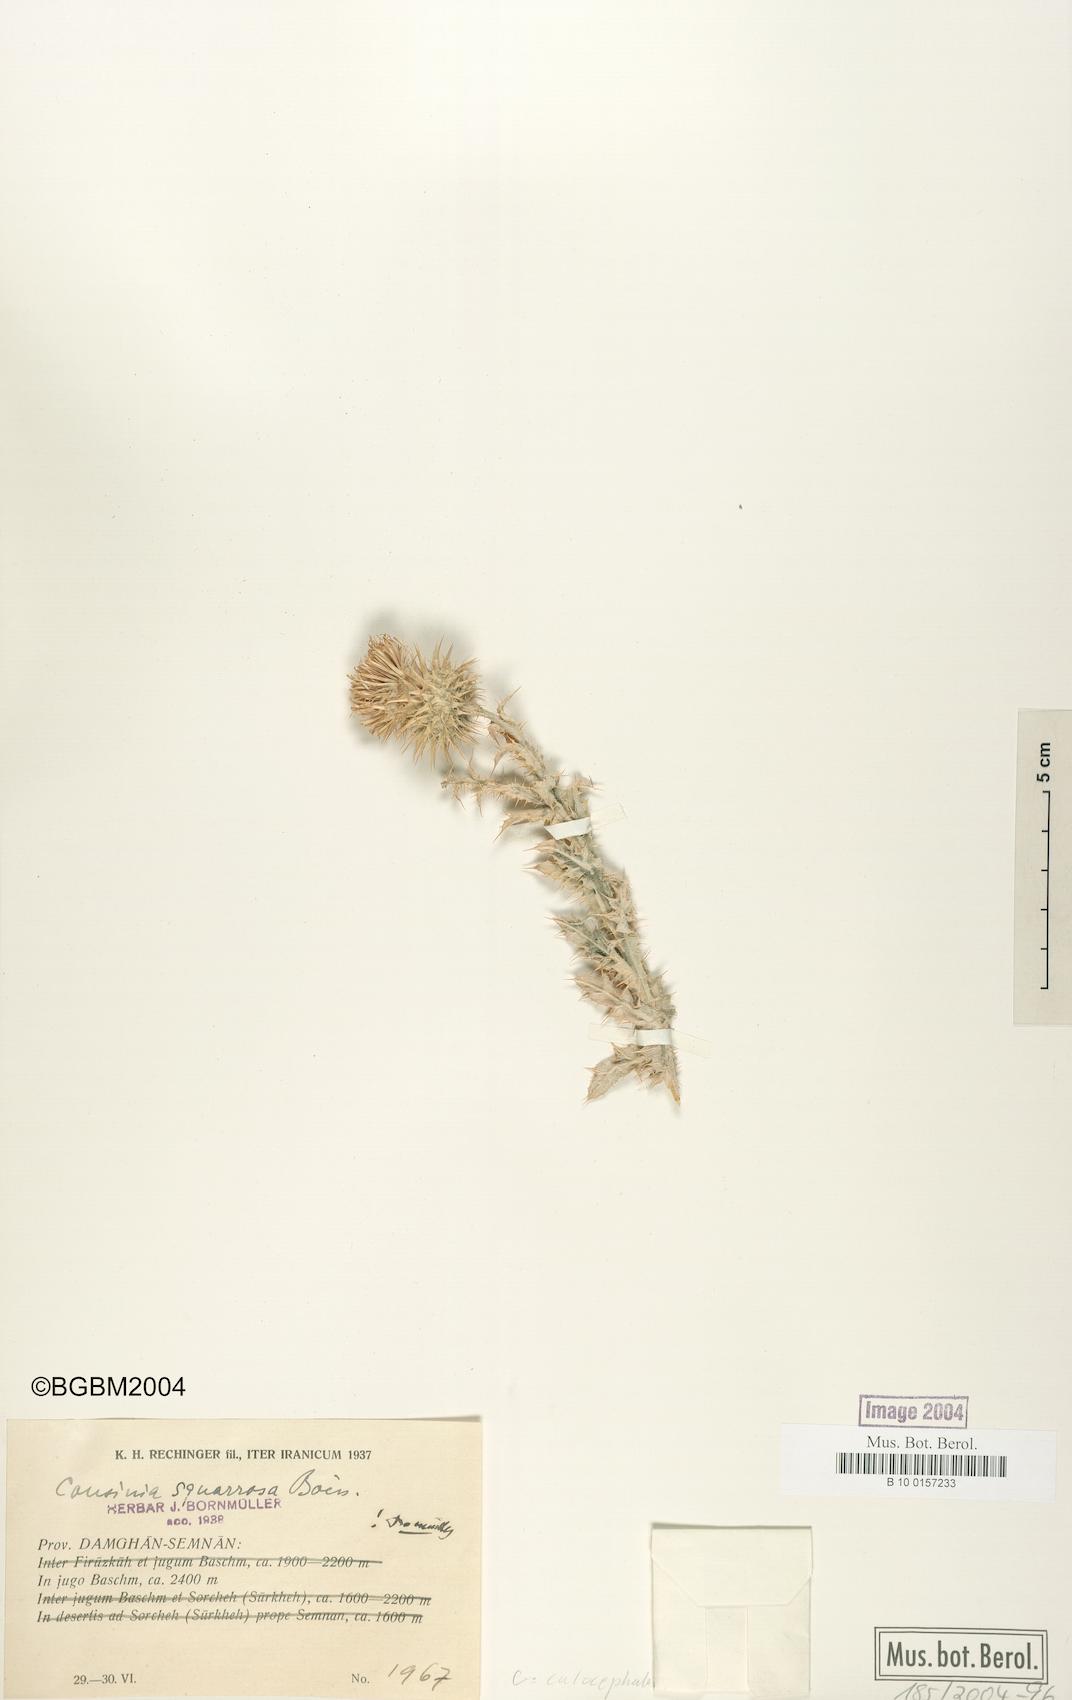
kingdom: Plantae
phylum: Tracheophyta
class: Magnoliopsida
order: Asterales
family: Asteraceae
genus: Cousinia
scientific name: Cousinia calocephala
